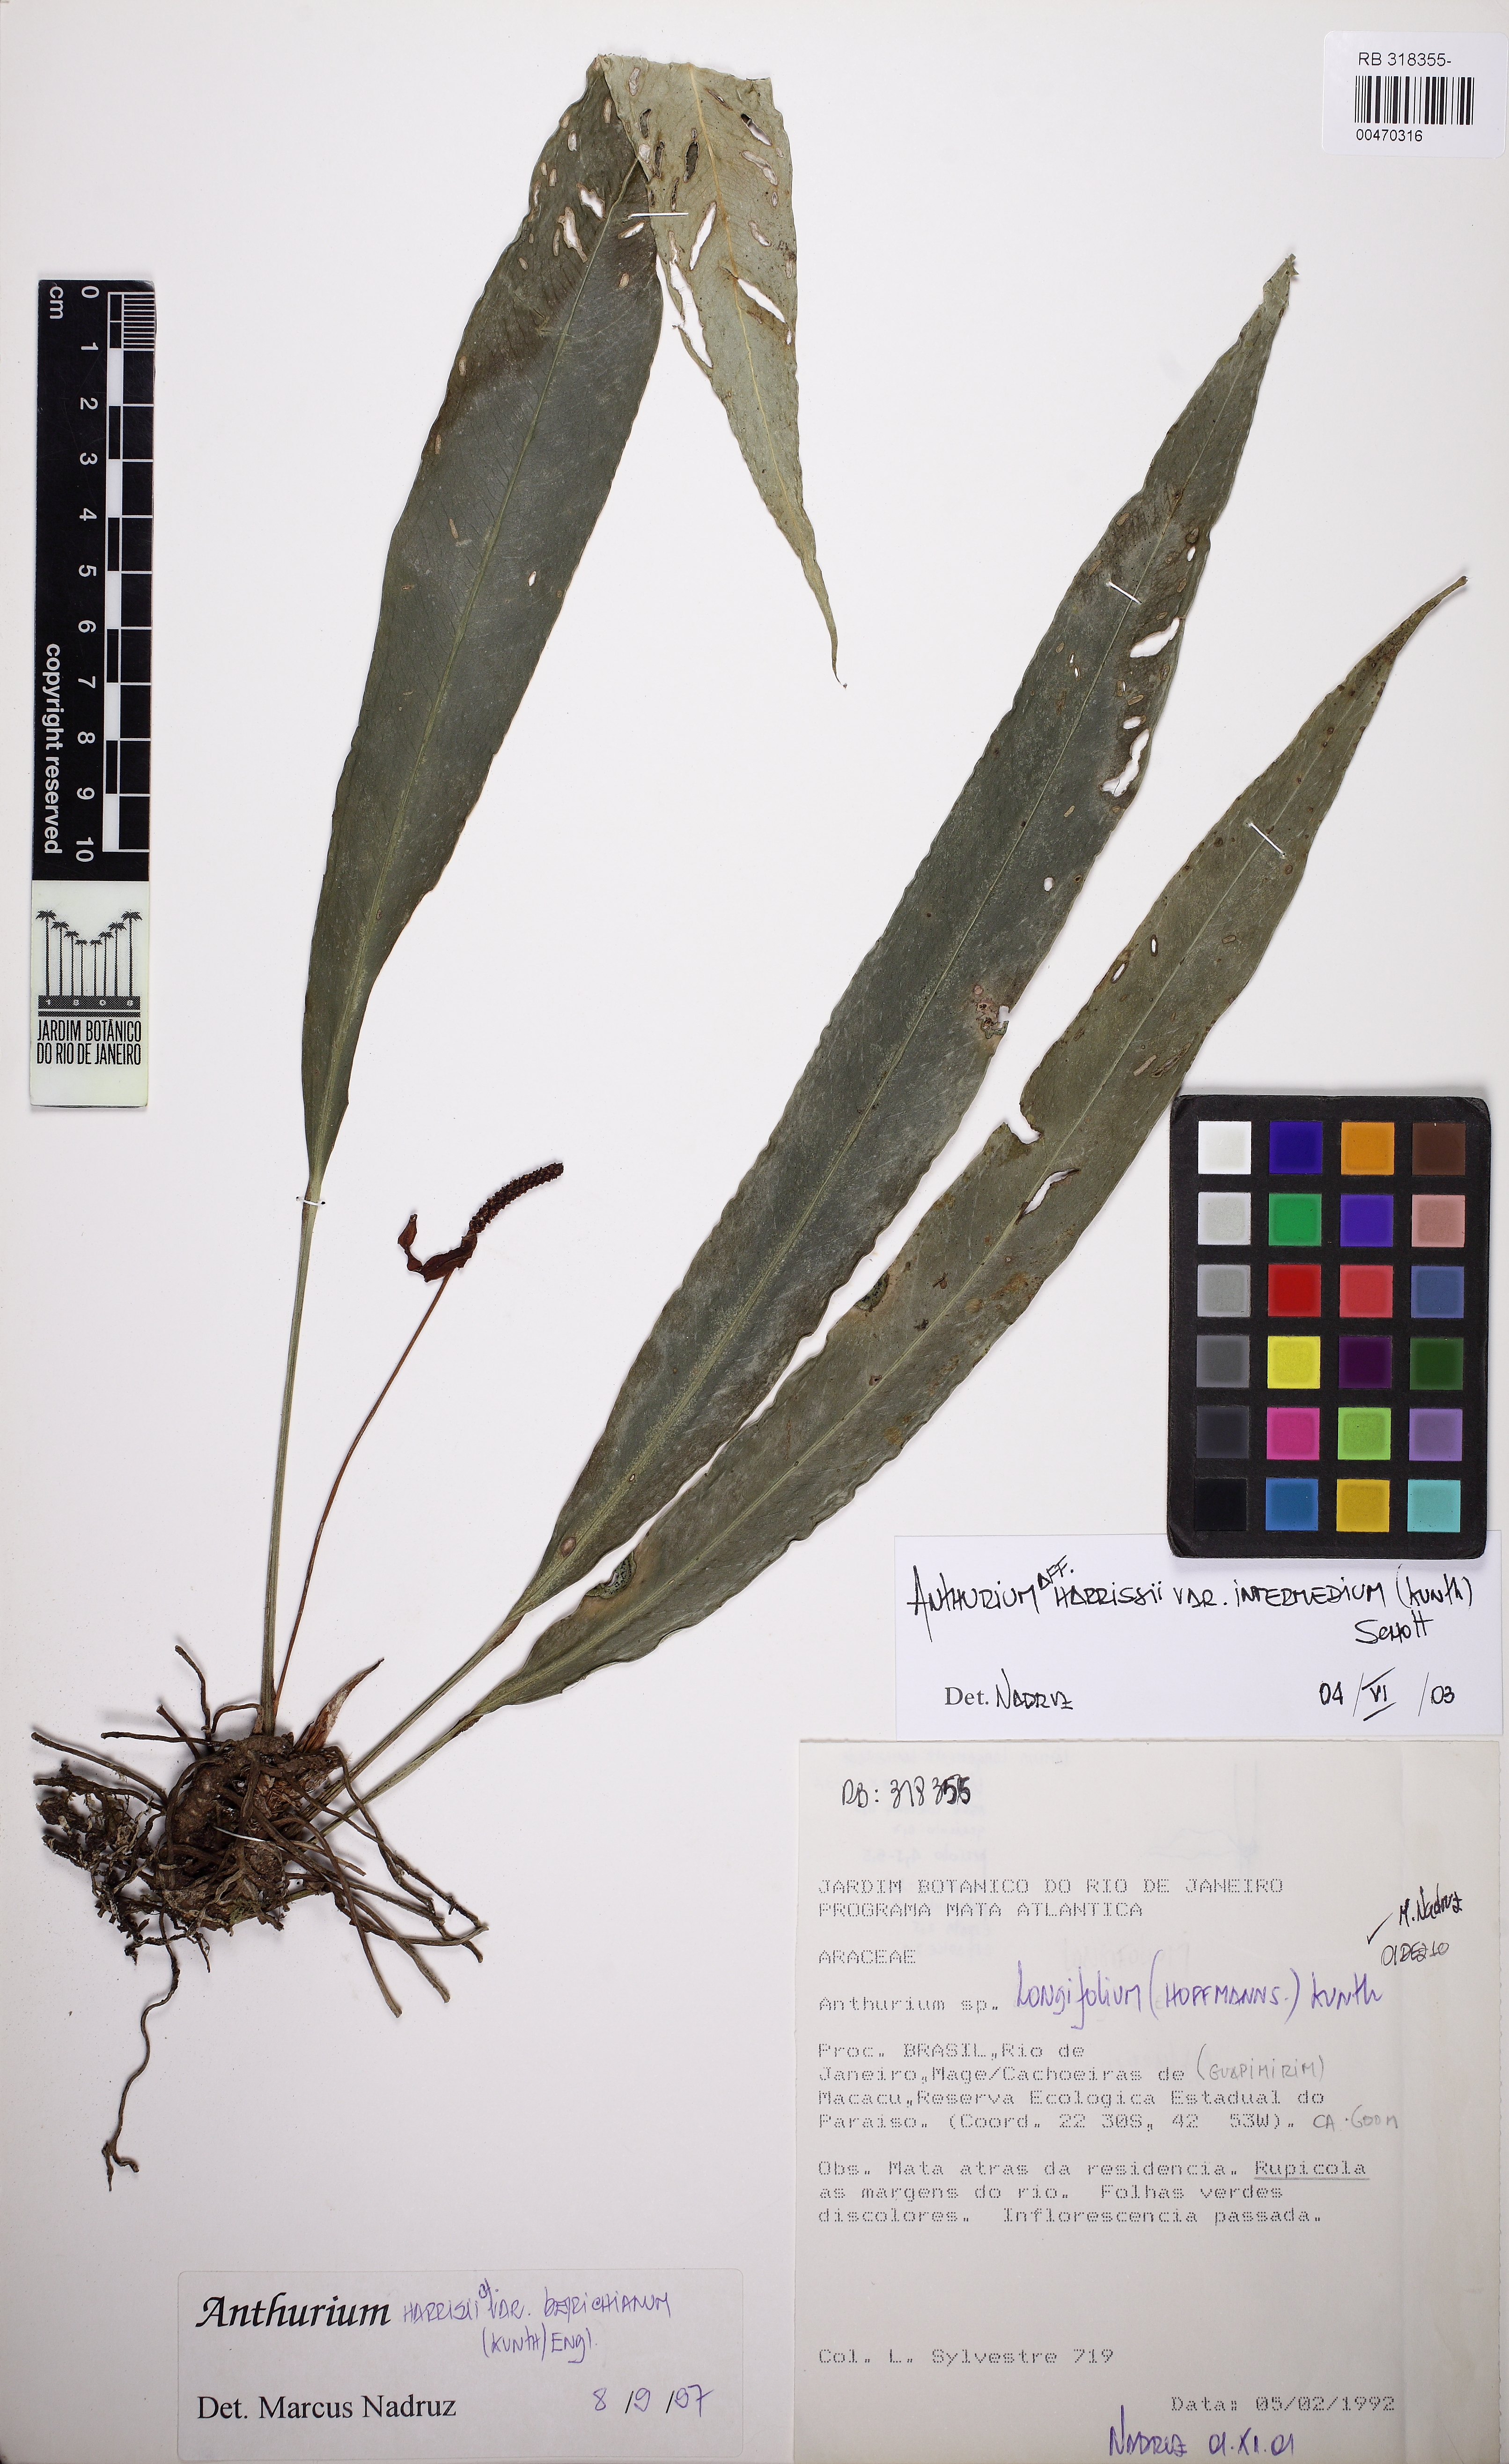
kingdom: Plantae
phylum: Tracheophyta
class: Liliopsida
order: Alismatales
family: Araceae
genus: Anthurium
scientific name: Anthurium longifolium
